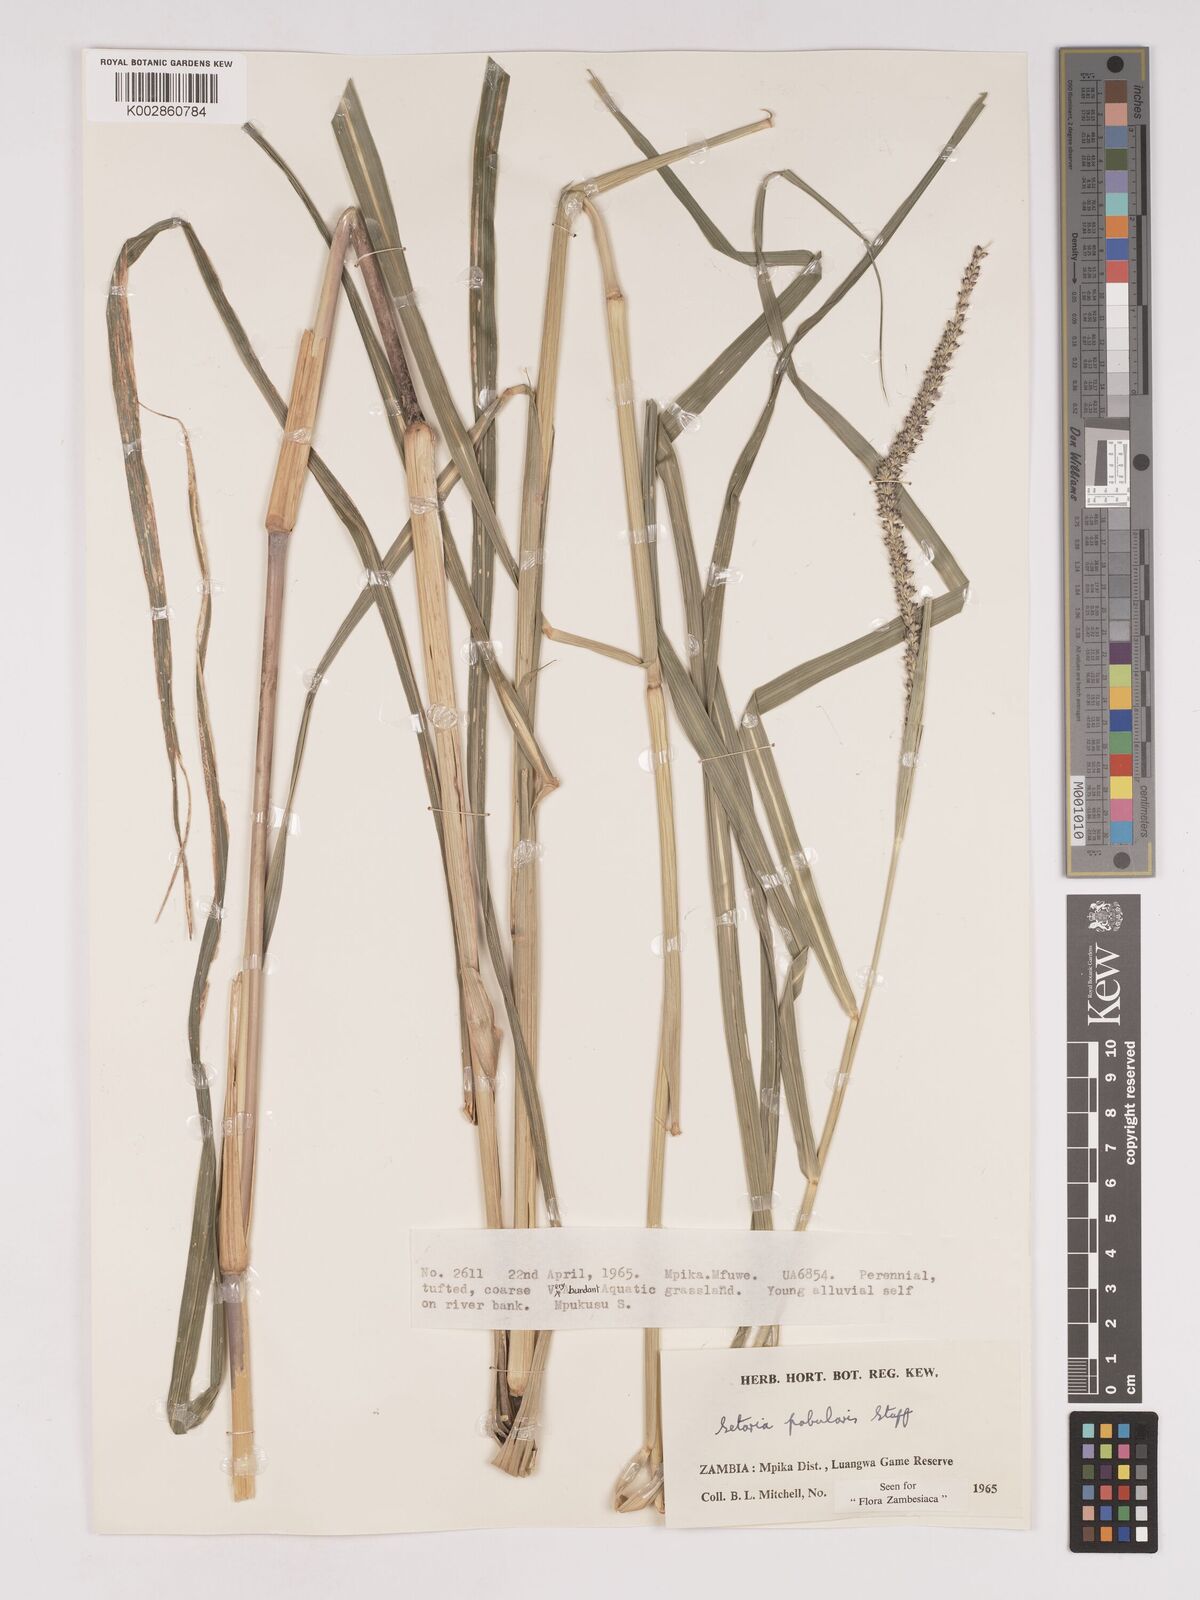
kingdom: Plantae
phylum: Tracheophyta
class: Liliopsida
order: Poales
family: Poaceae
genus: Setaria
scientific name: Setaria incrassata
